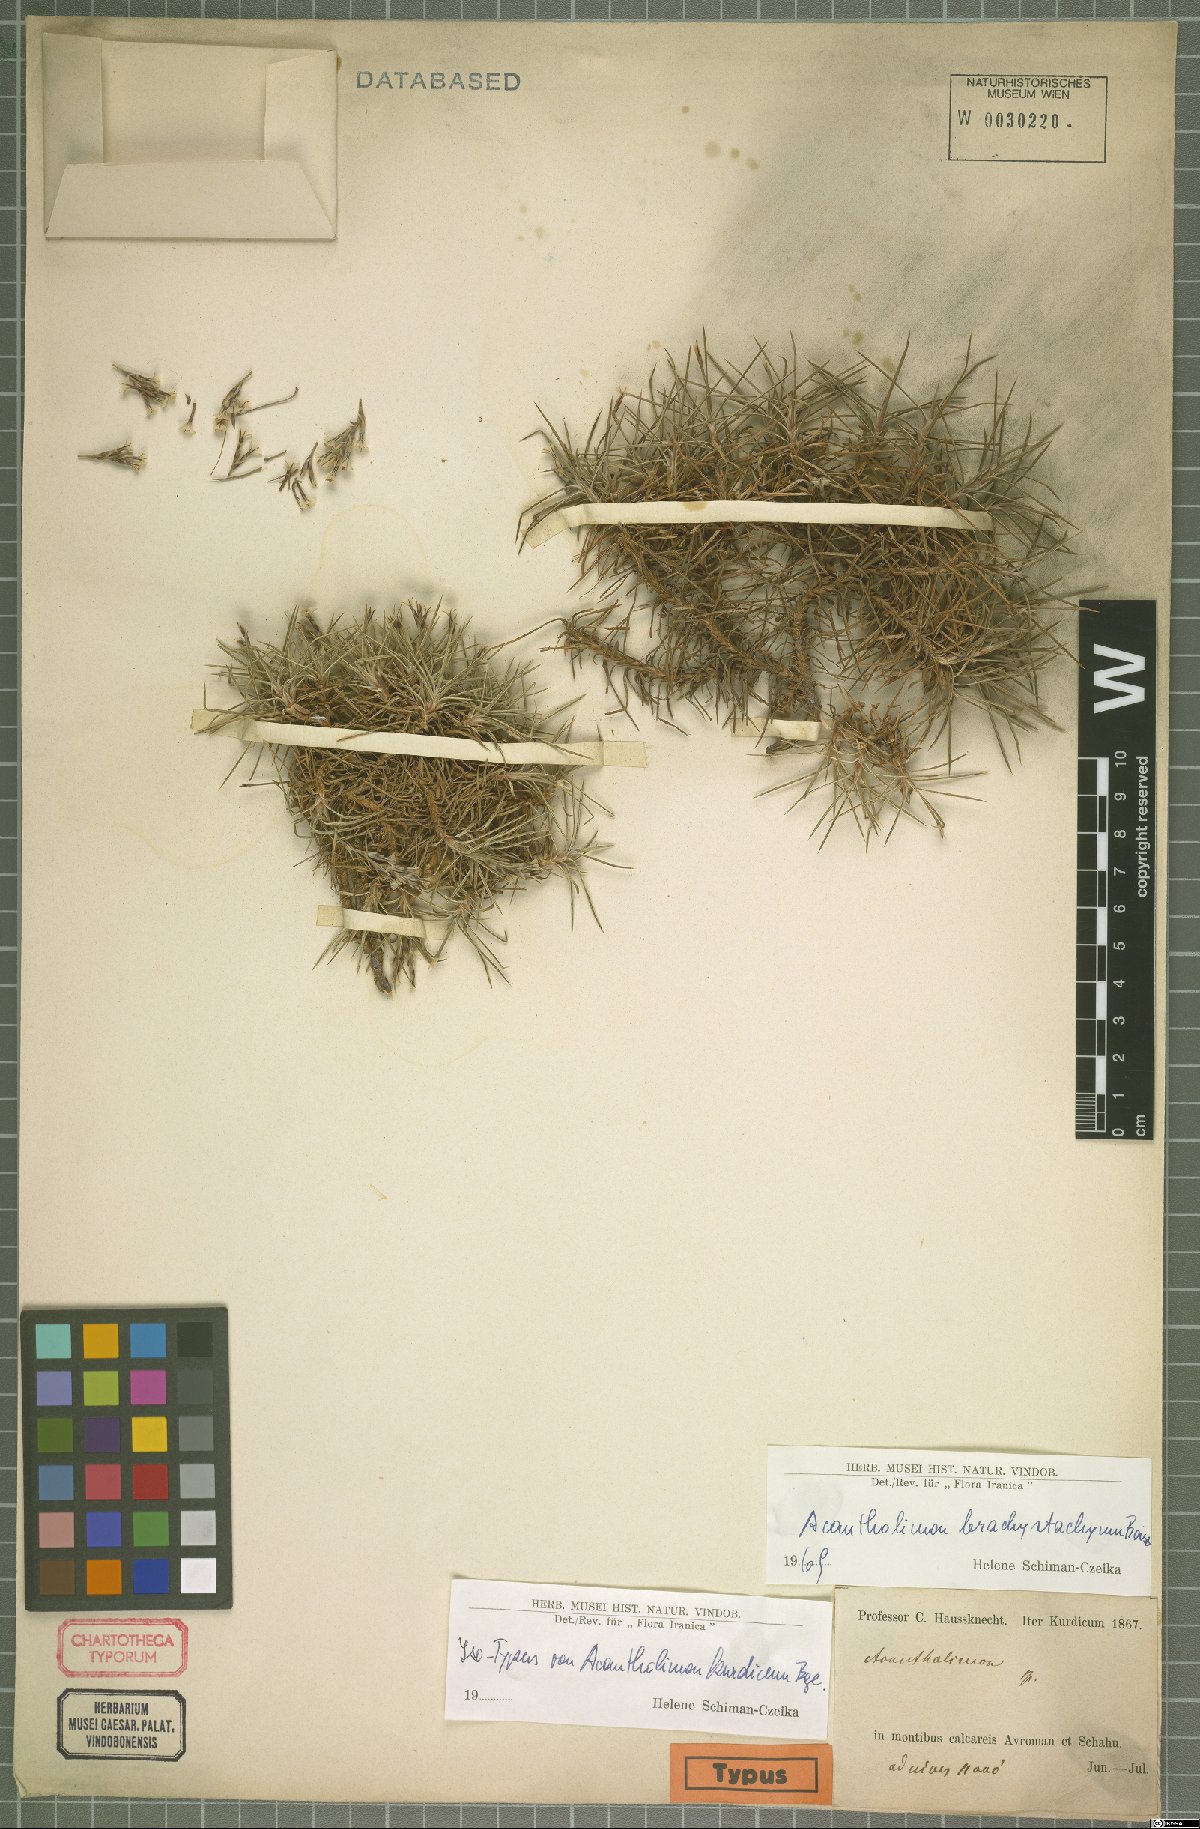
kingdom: Plantae
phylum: Tracheophyta
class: Magnoliopsida
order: Caryophyllales
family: Plumbaginaceae
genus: Acantholimon
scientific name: Acantholimon brachystachyum
